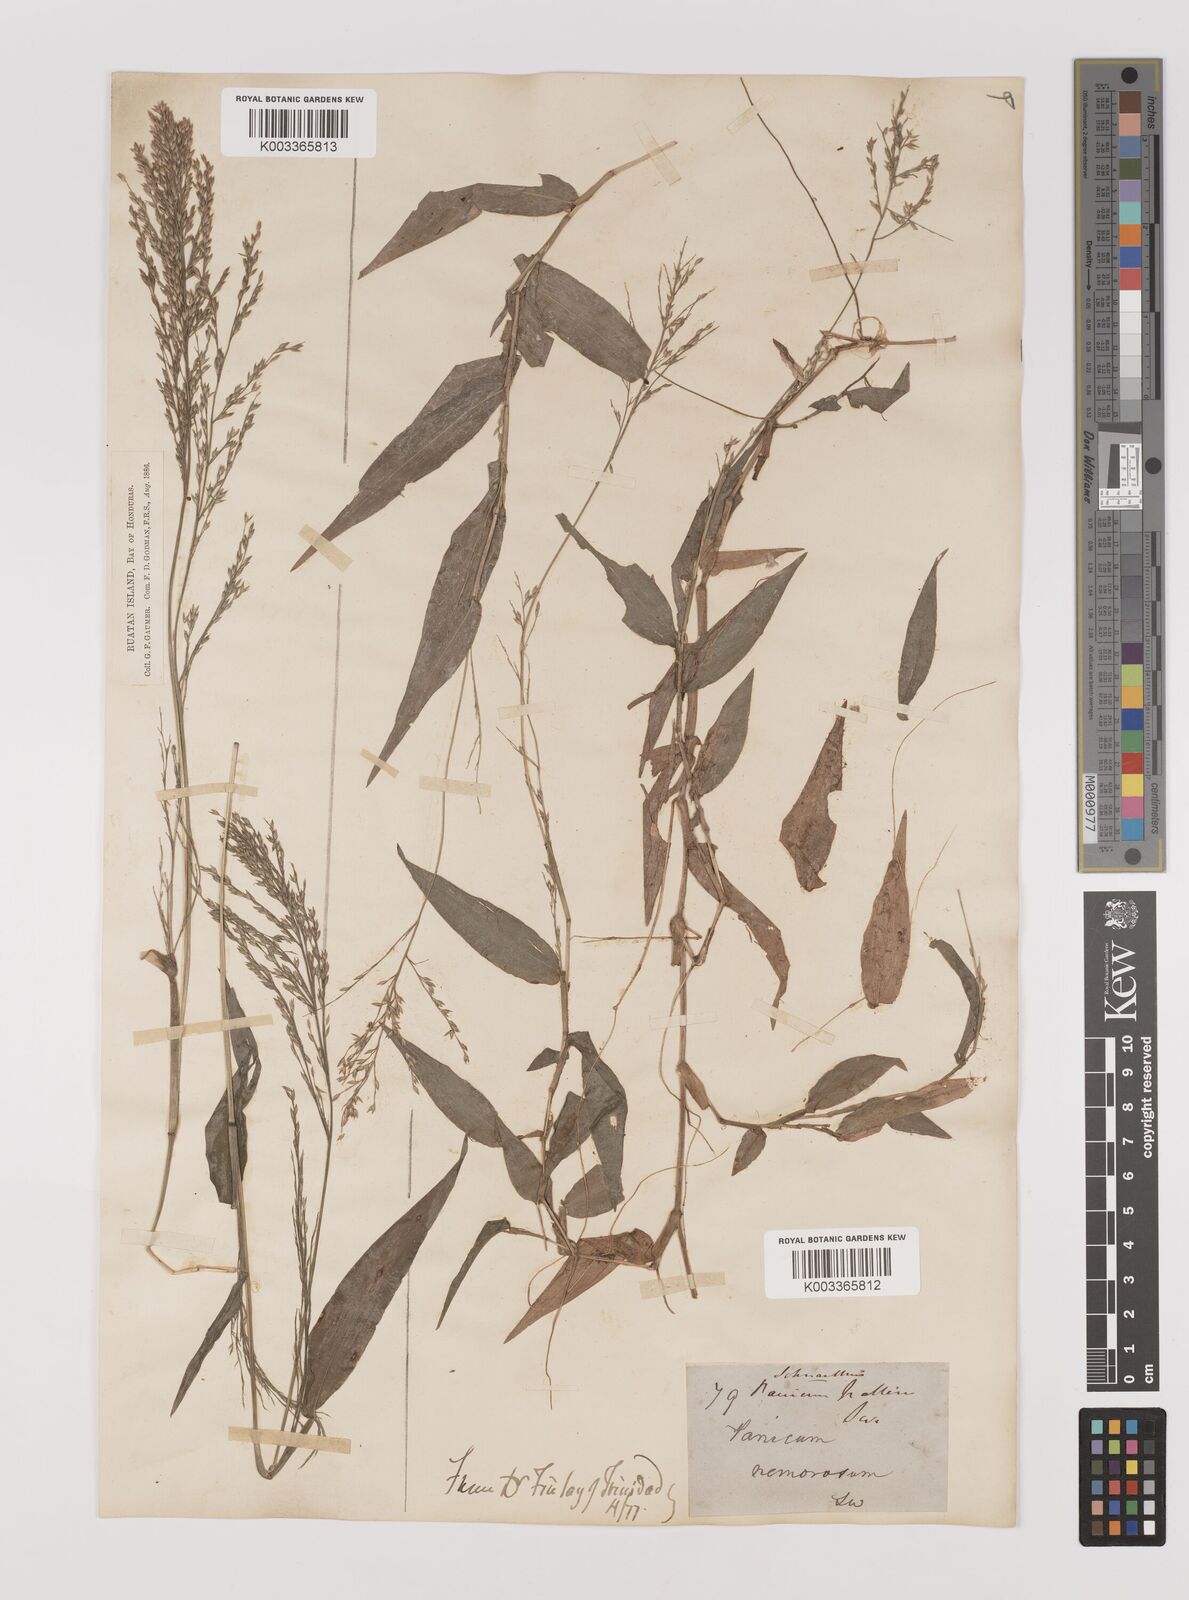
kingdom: Plantae
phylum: Tracheophyta
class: Liliopsida
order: Poales
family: Poaceae
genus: Ichnanthus
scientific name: Ichnanthus pallens
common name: Water grass
